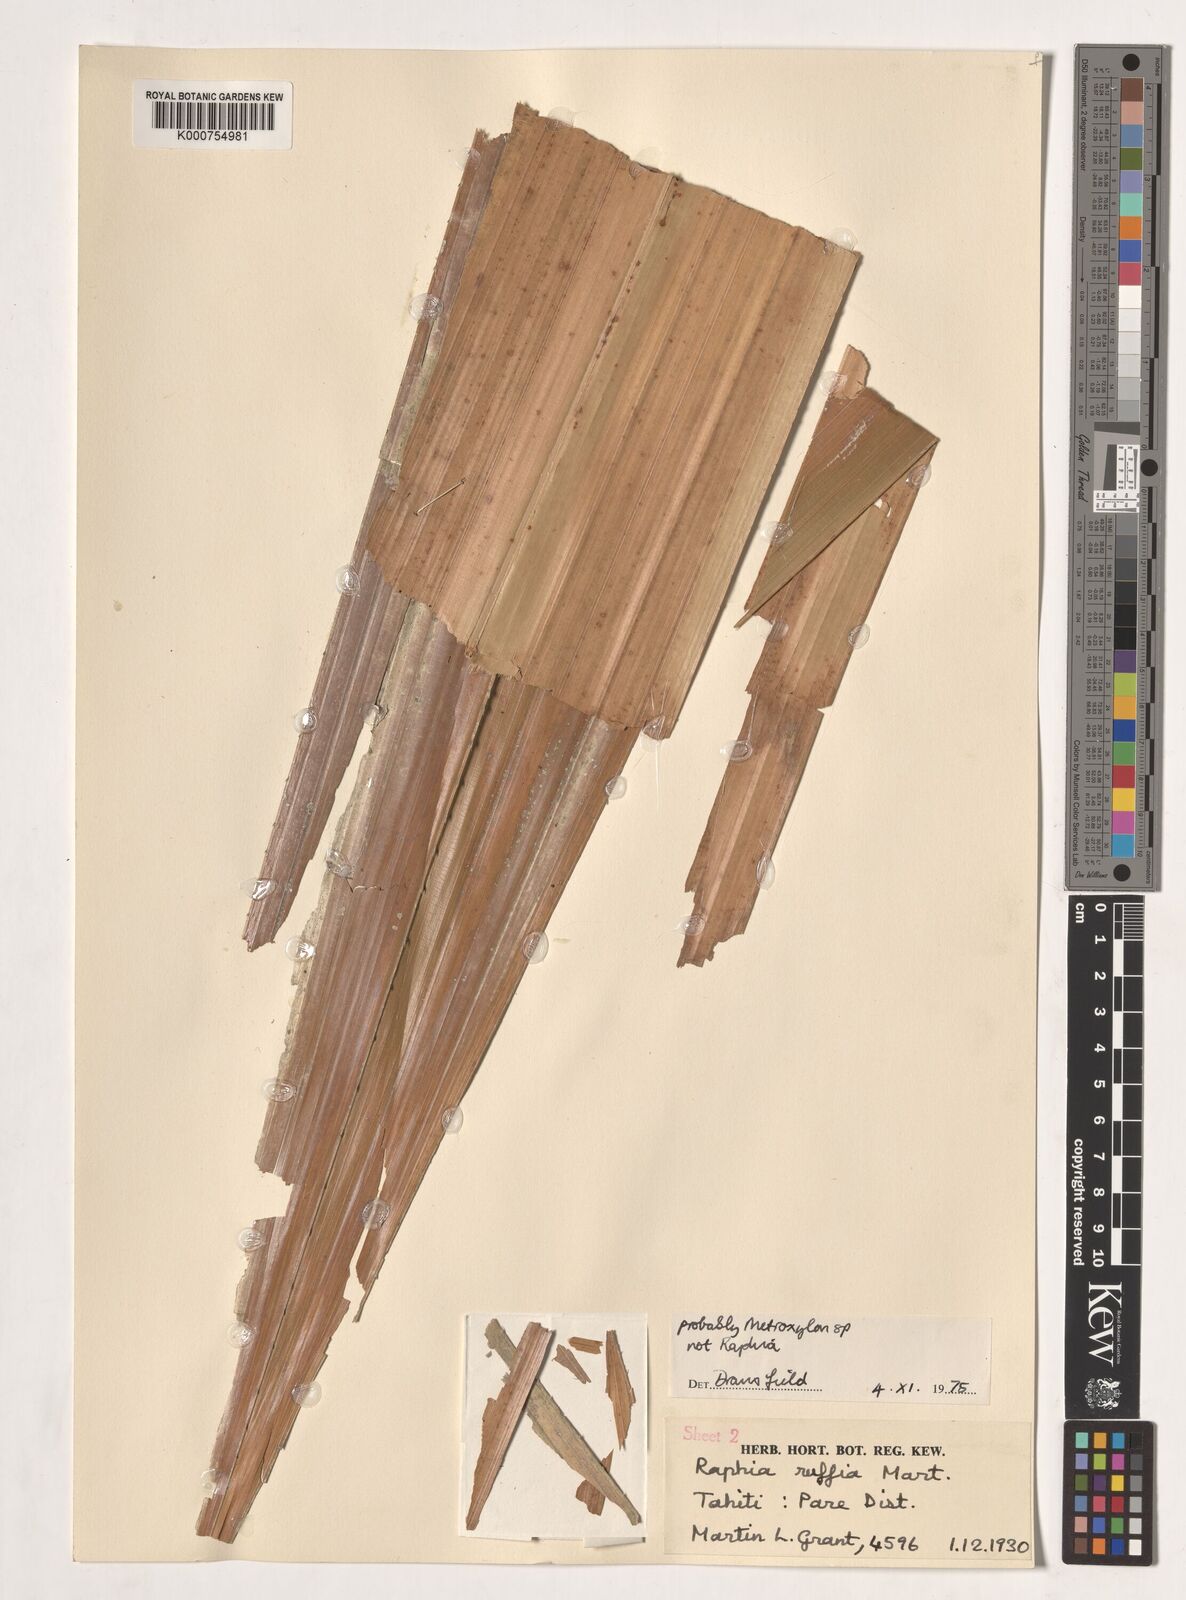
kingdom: Plantae
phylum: Tracheophyta
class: Liliopsida
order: Arecales
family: Arecaceae
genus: Metroxylon
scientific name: Metroxylon
